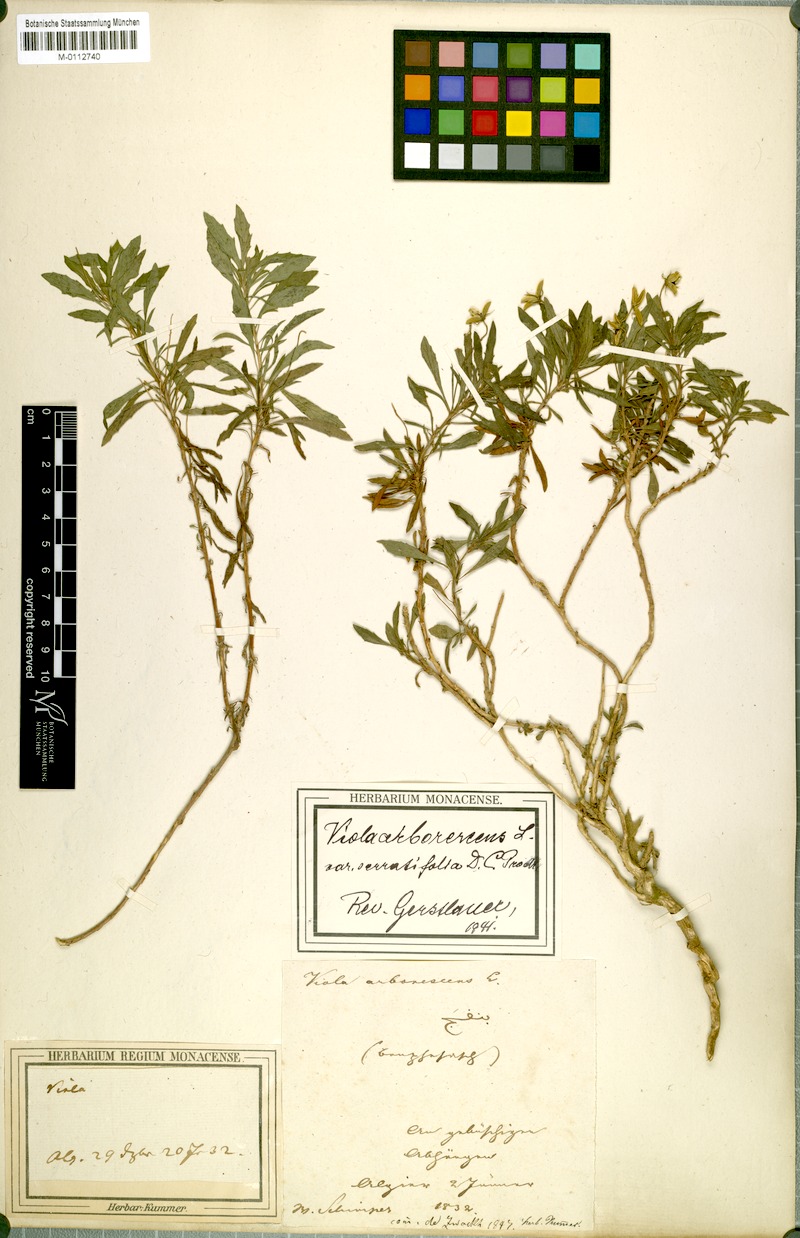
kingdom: Plantae
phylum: Tracheophyta
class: Magnoliopsida
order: Malpighiales
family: Violaceae
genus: Viola
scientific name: Viola arborescens
